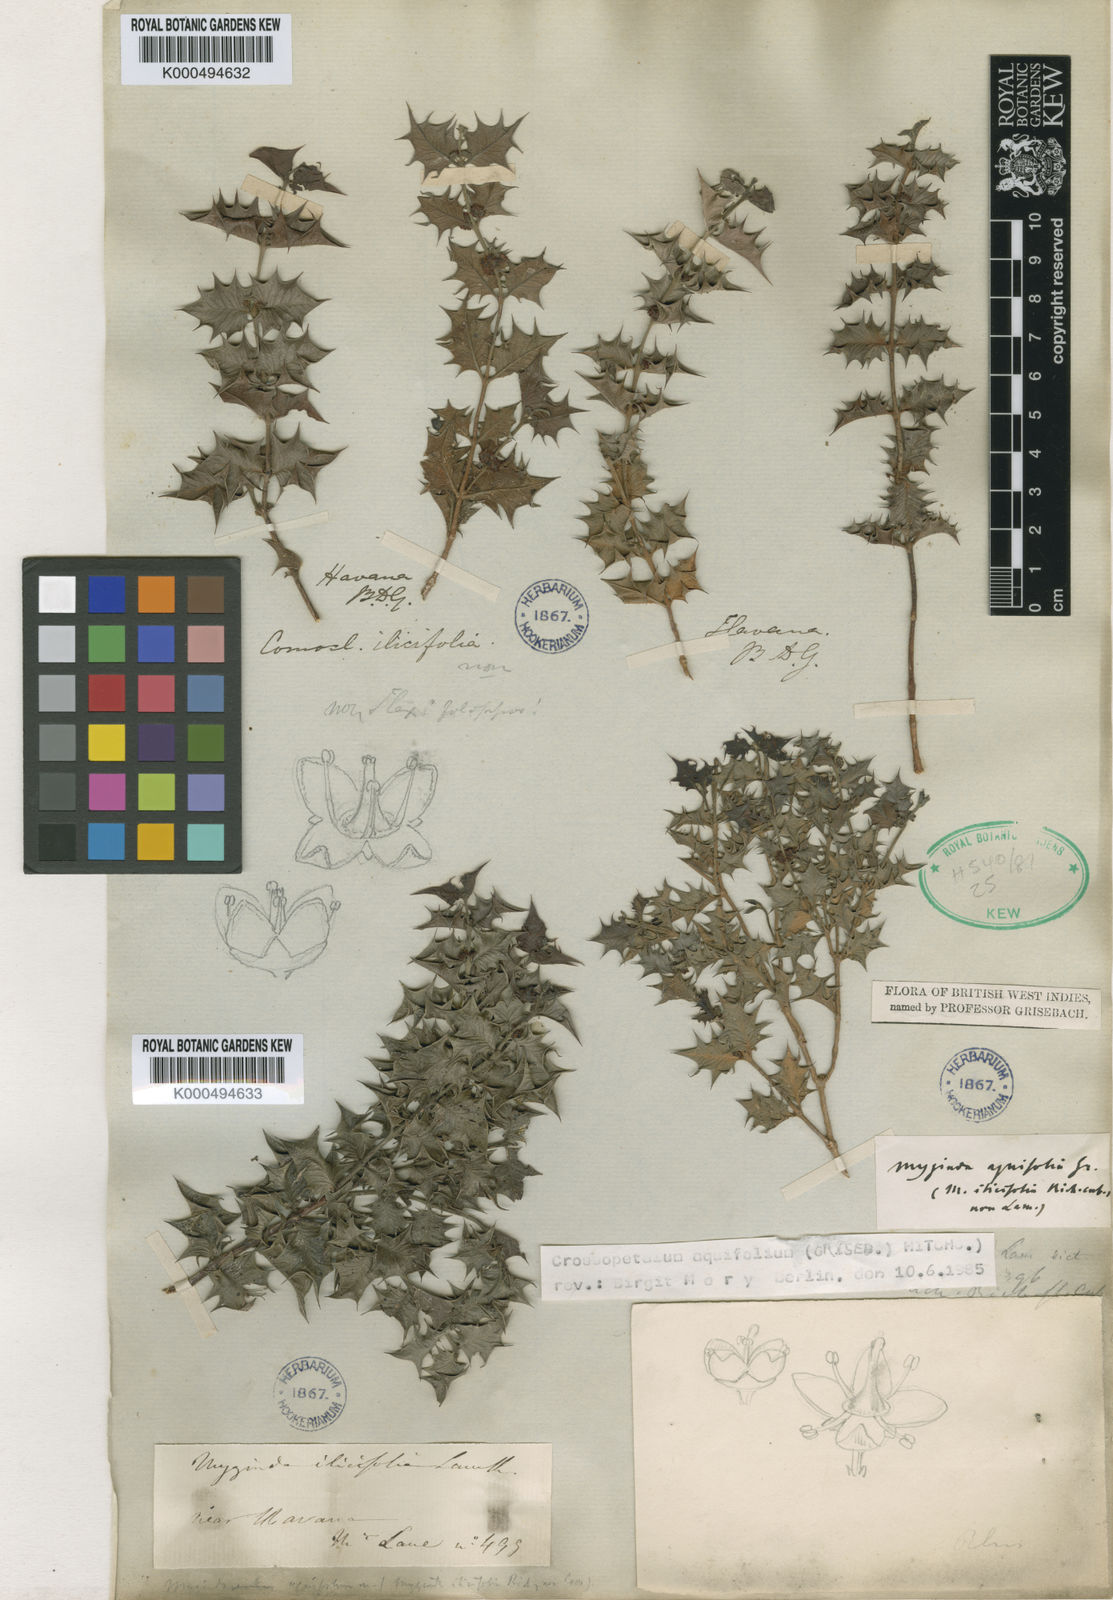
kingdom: Plantae
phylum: Tracheophyta
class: Magnoliopsida
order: Celastrales
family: Celastraceae
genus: Crossopetalum
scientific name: Crossopetalum aquifolium
